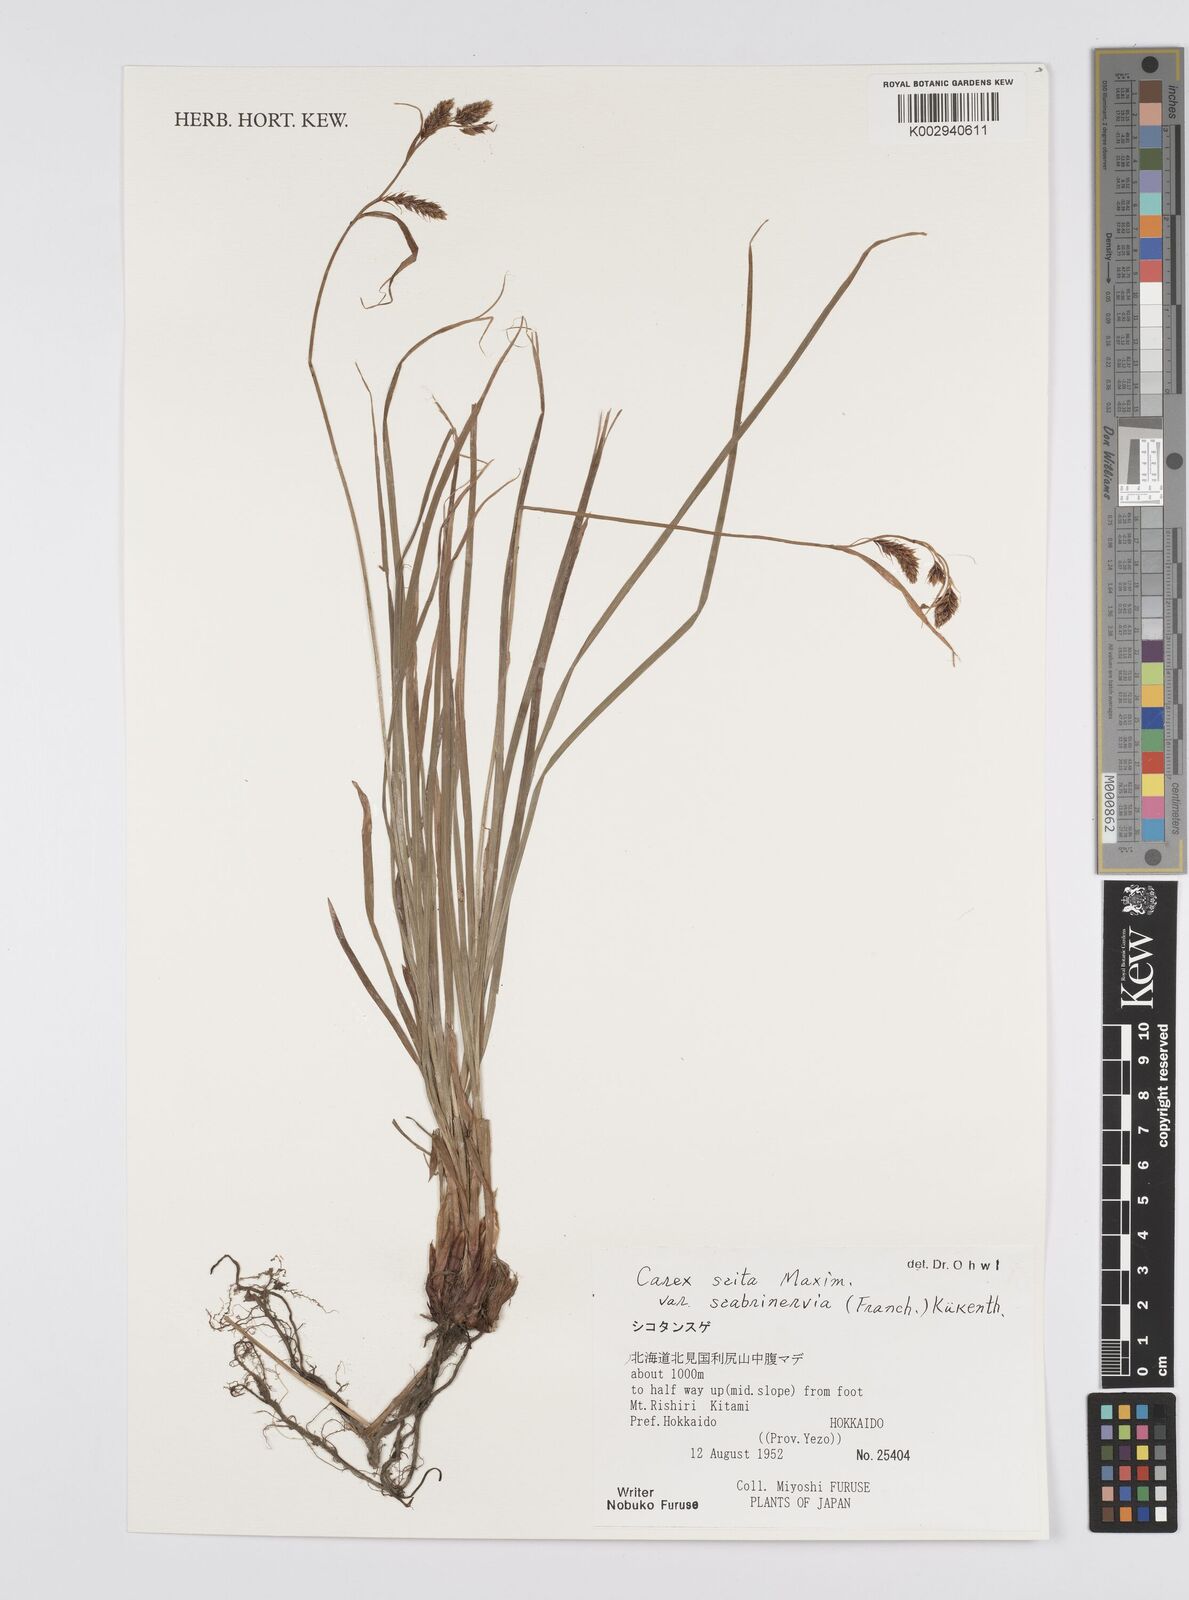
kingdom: Plantae
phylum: Tracheophyta
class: Liliopsida
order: Poales
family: Cyperaceae
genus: Carex
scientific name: Carex scita
